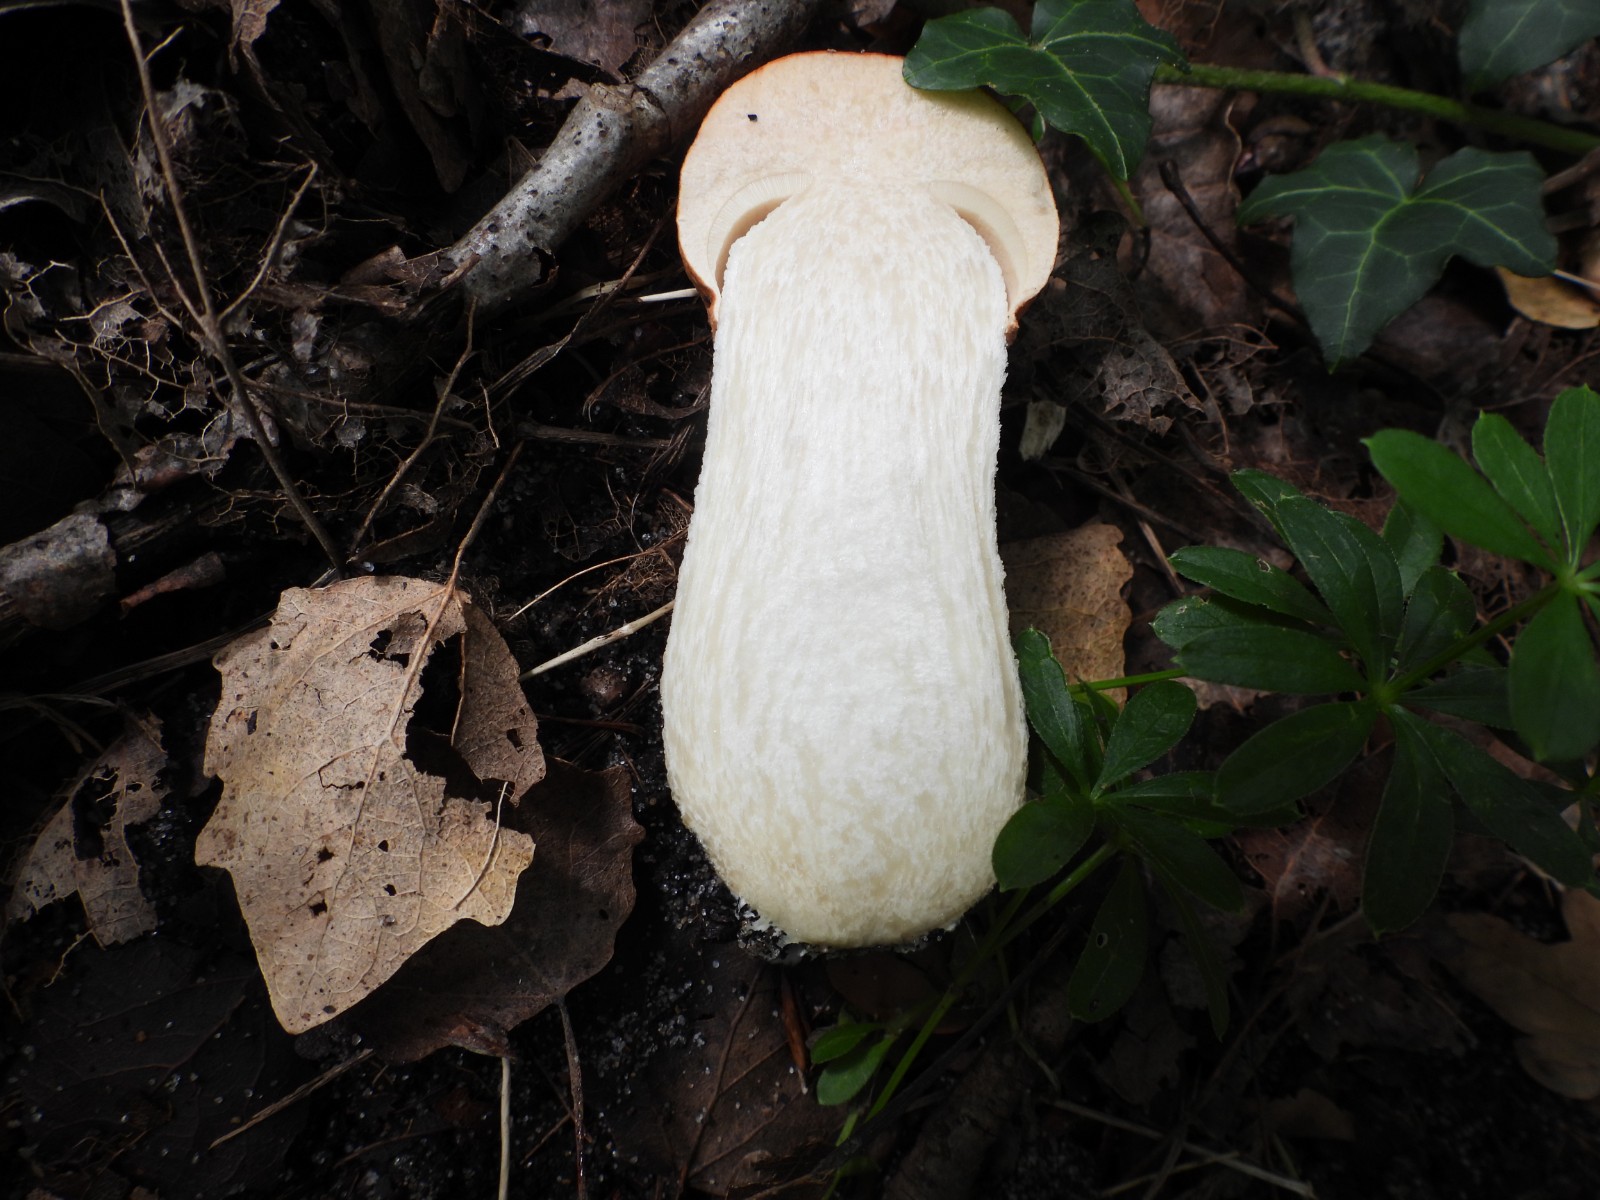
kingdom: Fungi
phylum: Basidiomycota
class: Agaricomycetes
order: Boletales
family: Boletaceae
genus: Leccinum
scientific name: Leccinum albostipitatum
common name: aspe-skælrørhat
